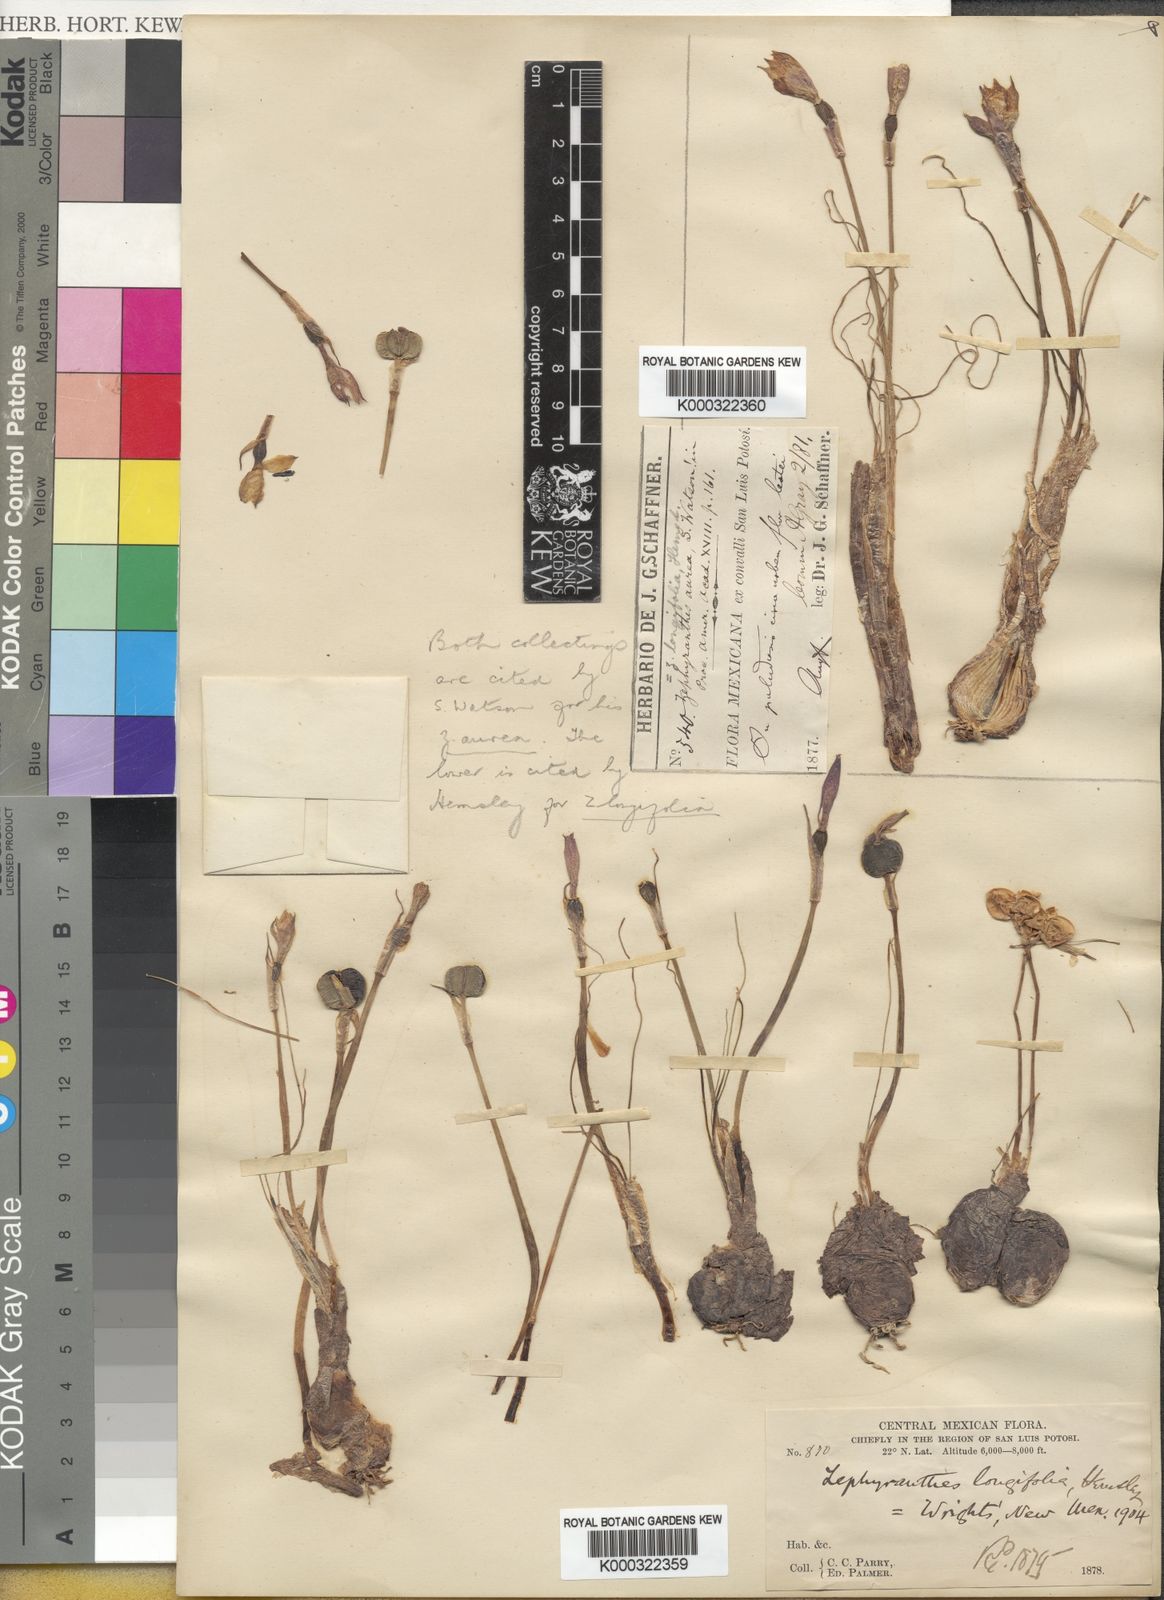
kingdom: Plantae
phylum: Tracheophyta
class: Liliopsida
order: Asparagales
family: Amaryllidaceae
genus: Zephyranthes
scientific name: Zephyranthes
